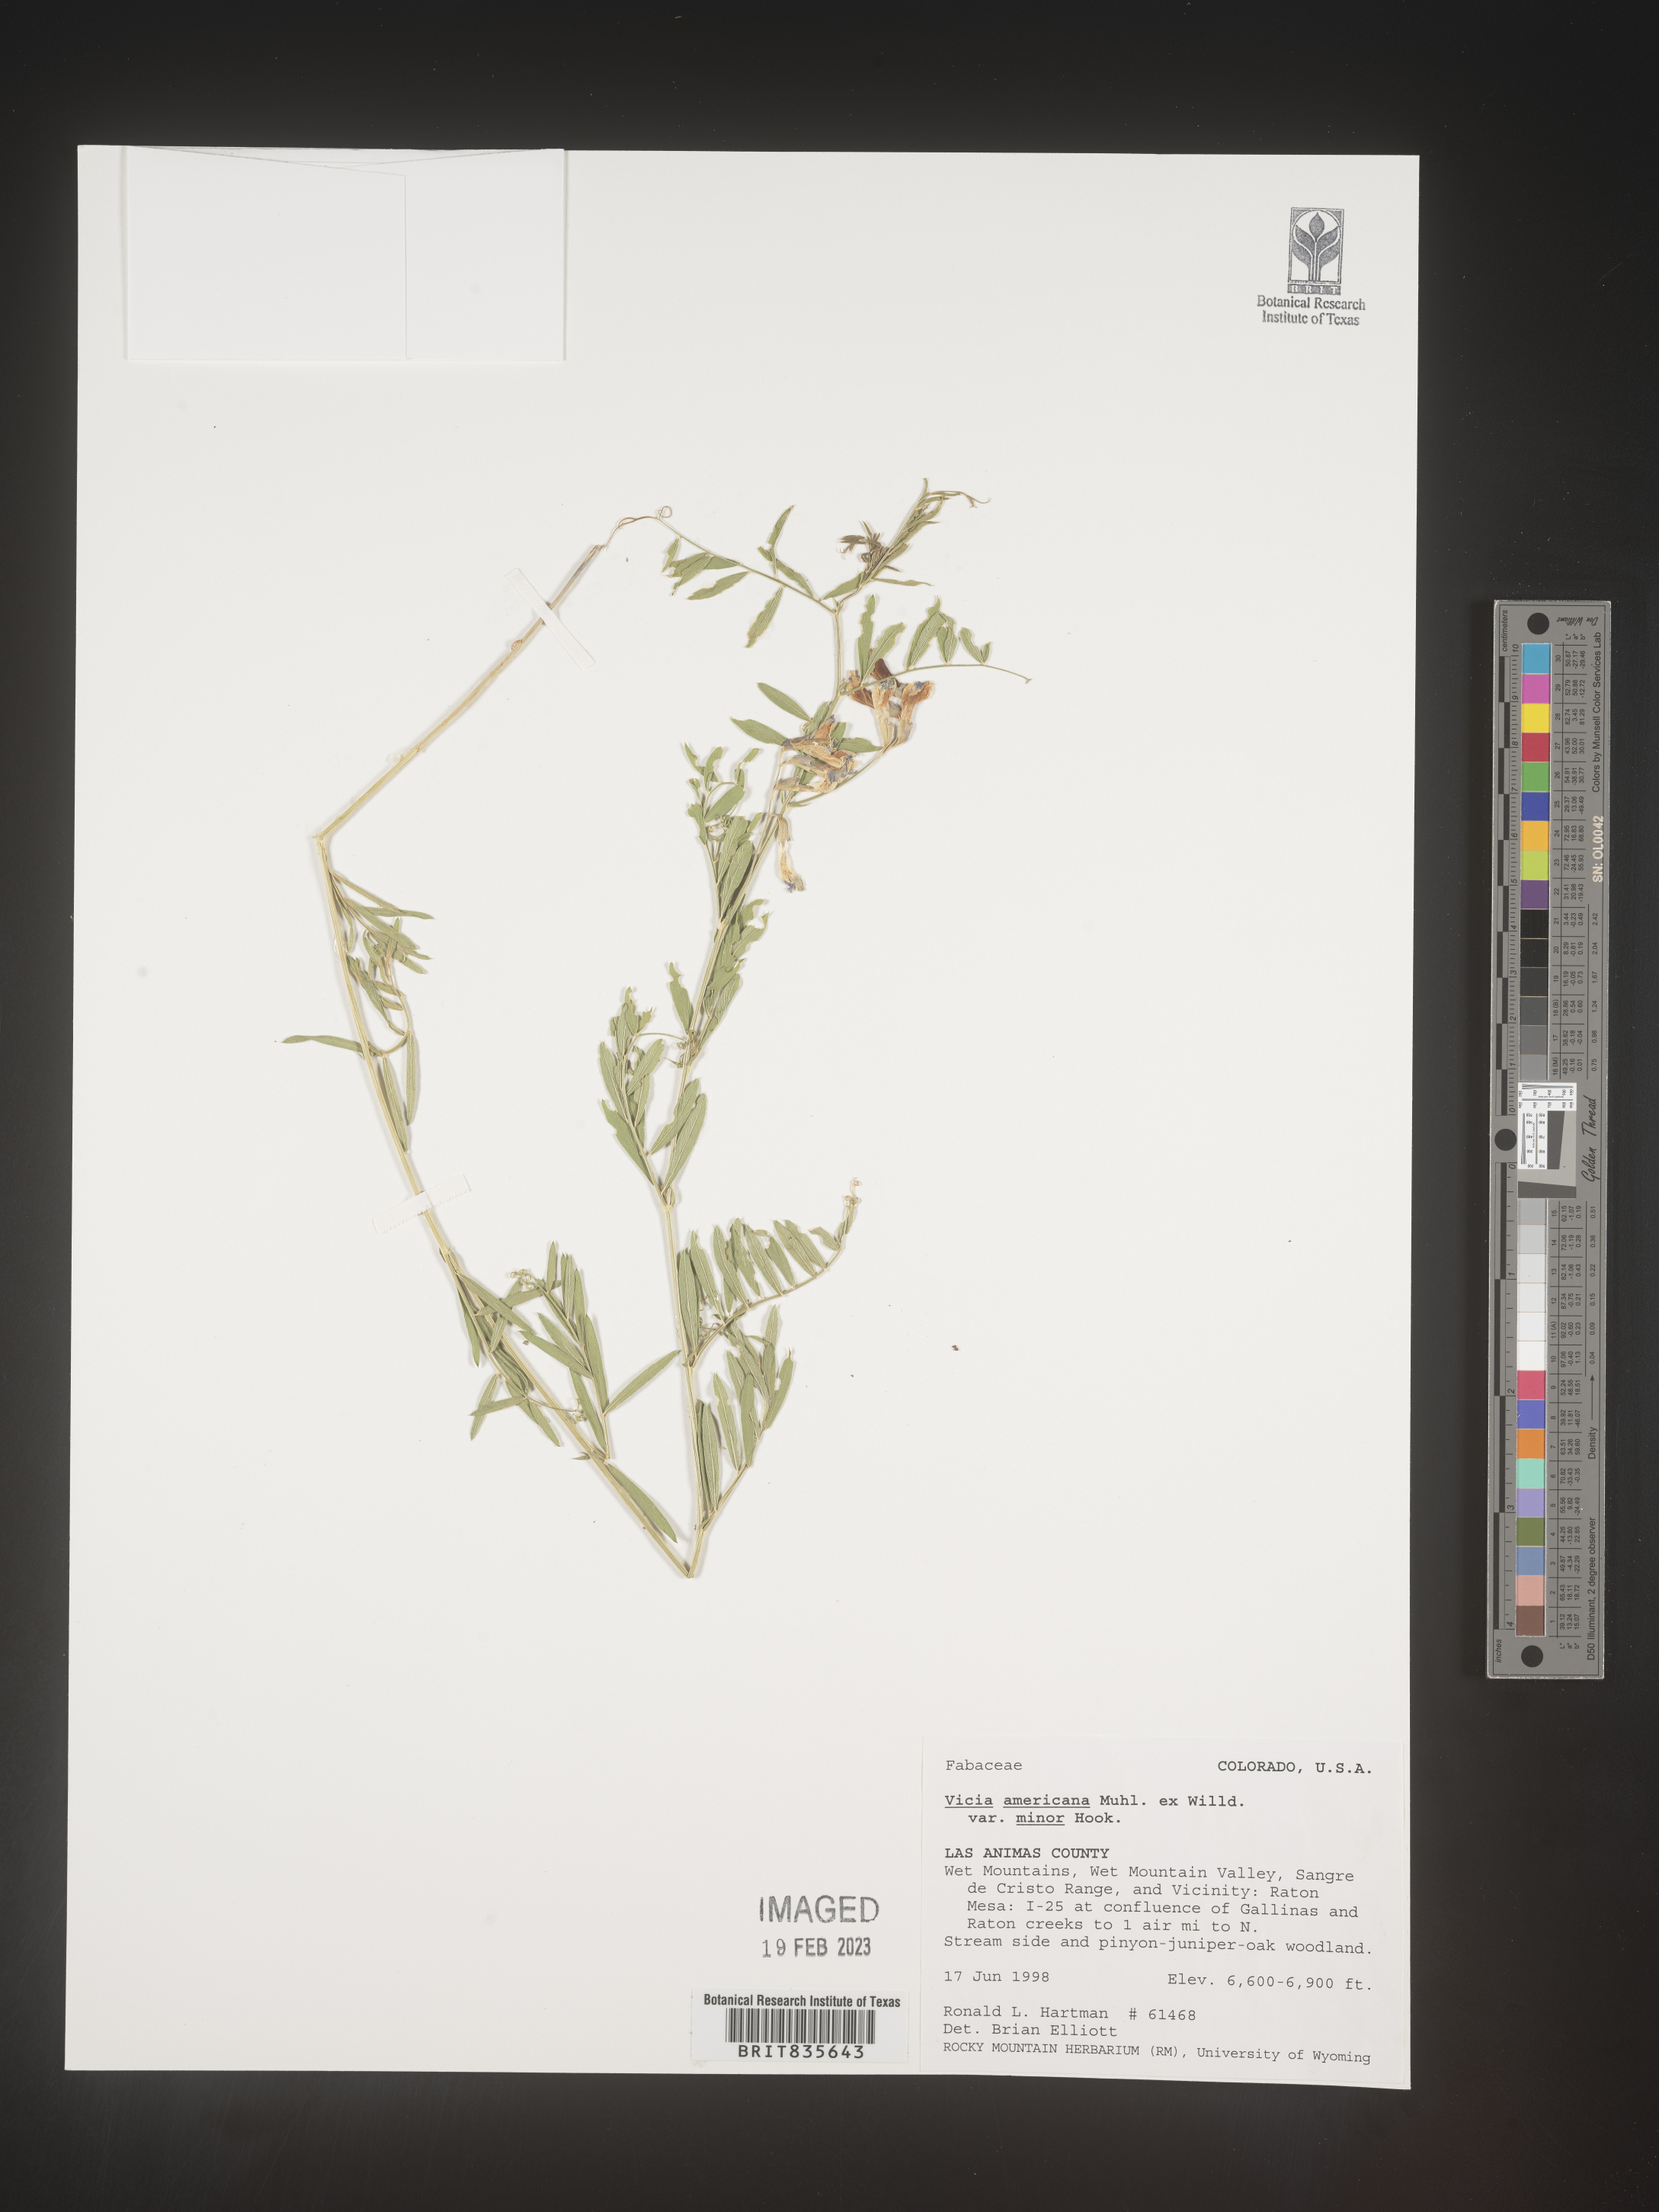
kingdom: Plantae
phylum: Tracheophyta
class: Magnoliopsida
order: Fabales
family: Fabaceae
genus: Vicia
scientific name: Vicia americana
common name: American vetch
